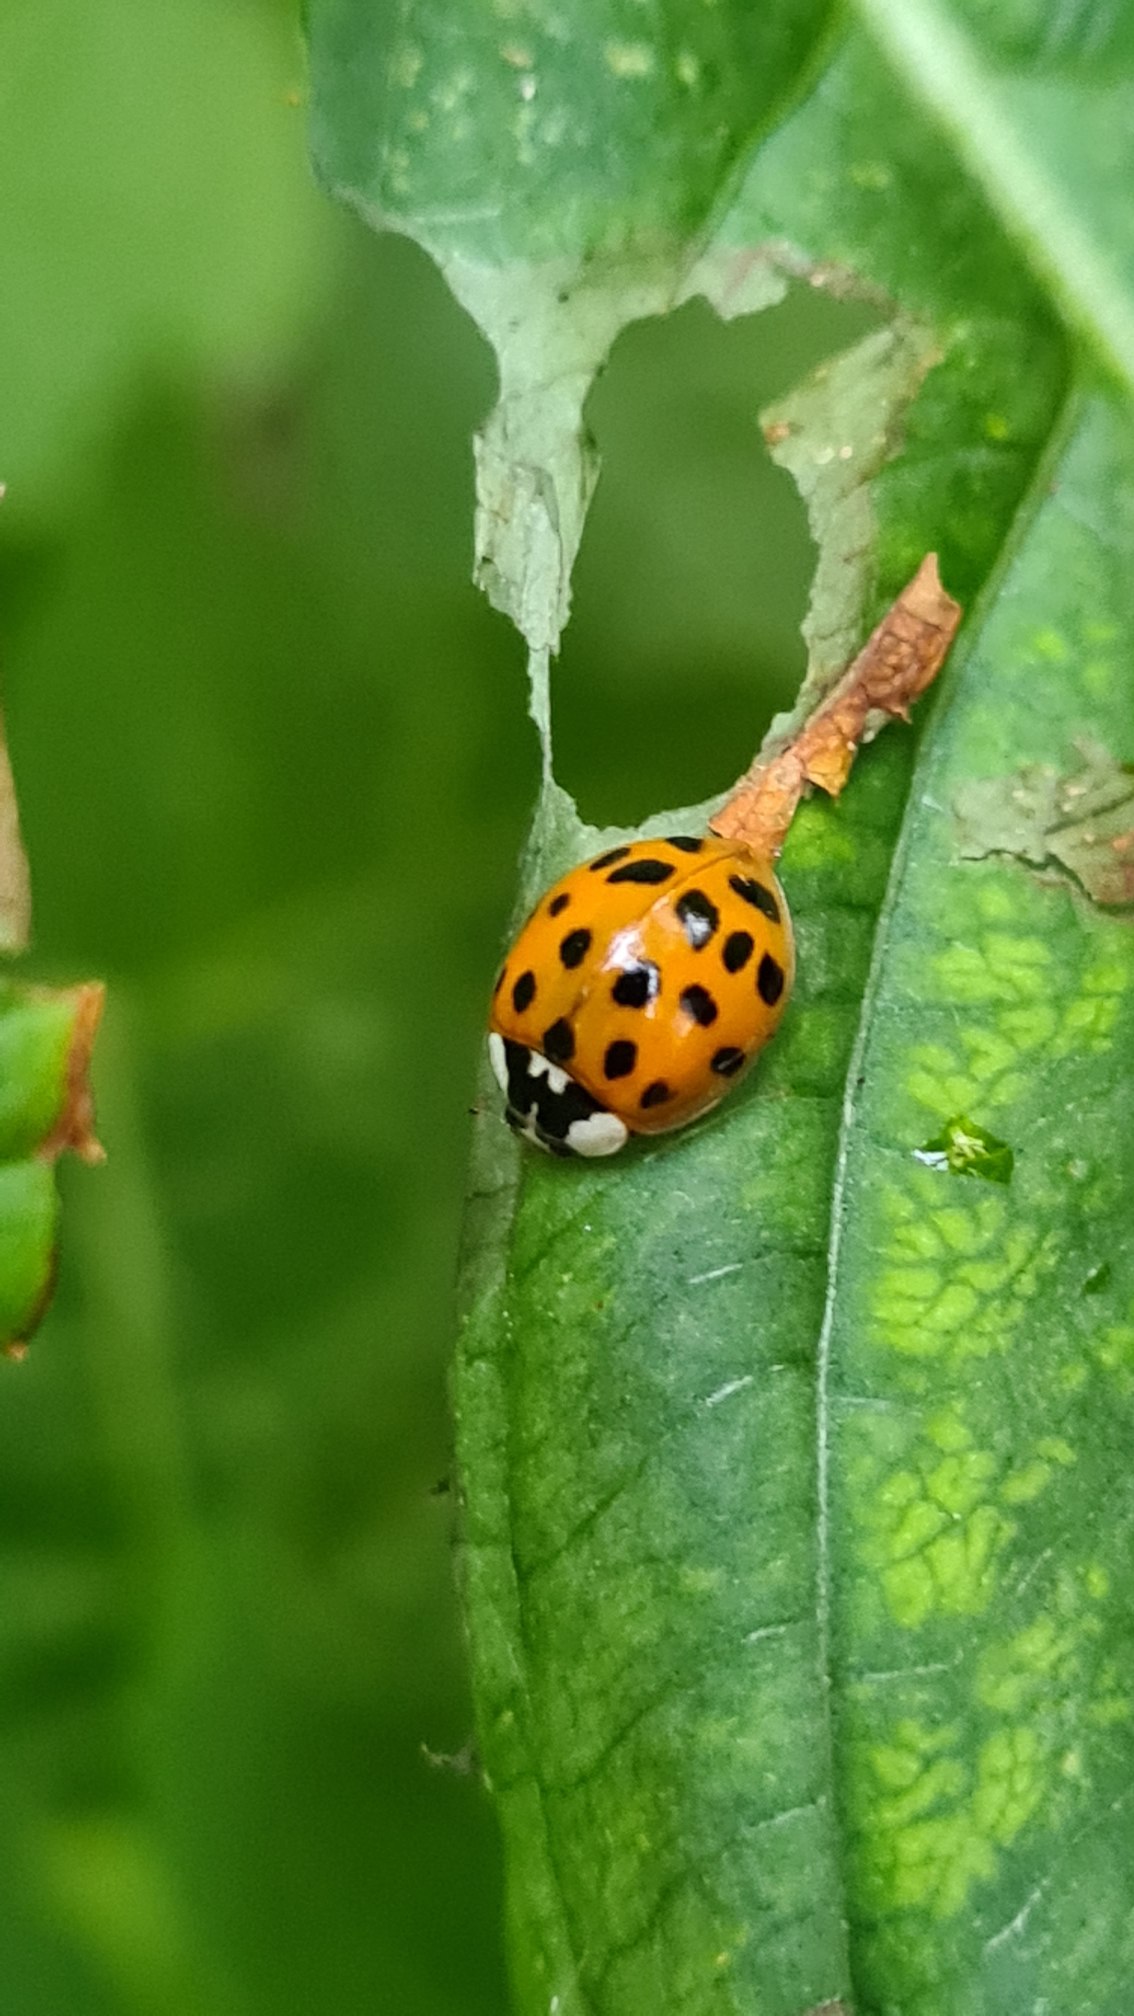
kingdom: Animalia
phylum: Arthropoda
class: Insecta
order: Coleoptera
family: Coccinellidae
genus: Harmonia
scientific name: Harmonia axyridis
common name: Harlekinmariehøne
